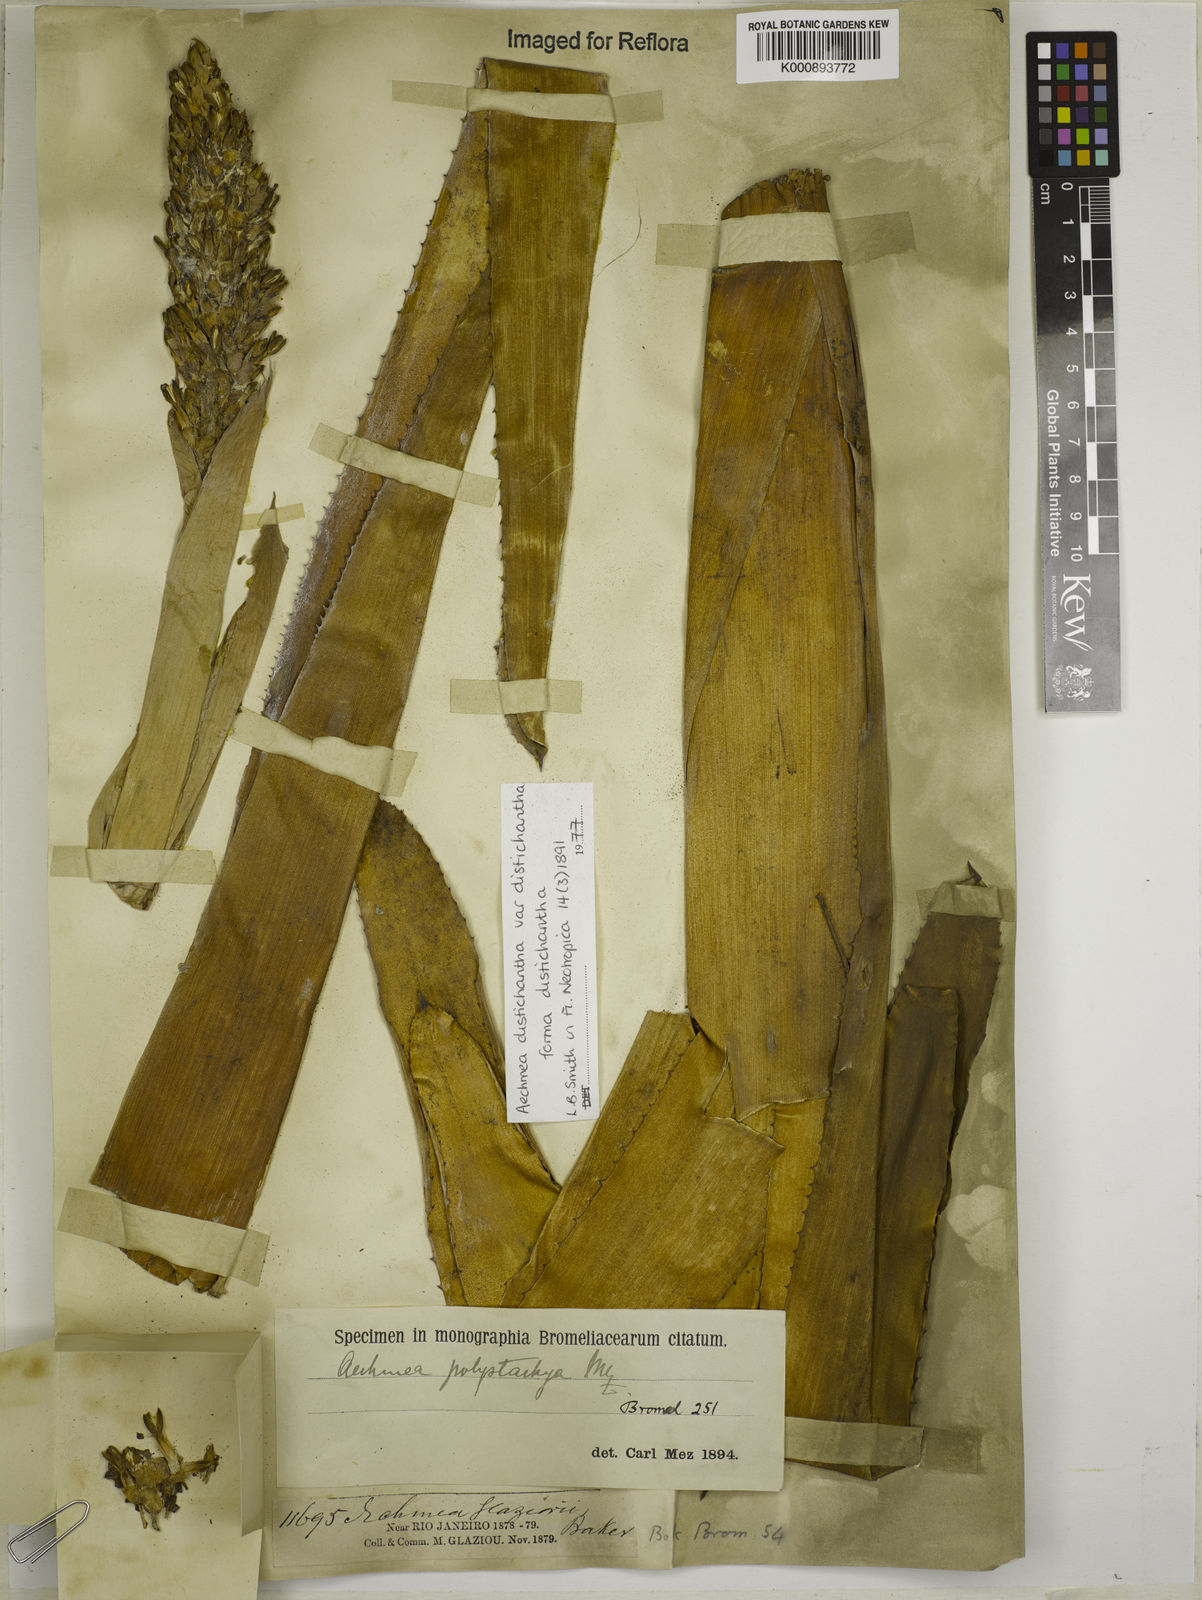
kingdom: Plantae
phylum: Tracheophyta
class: Liliopsida
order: Poales
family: Bromeliaceae
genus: Aechmea
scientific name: Aechmea distichantha
